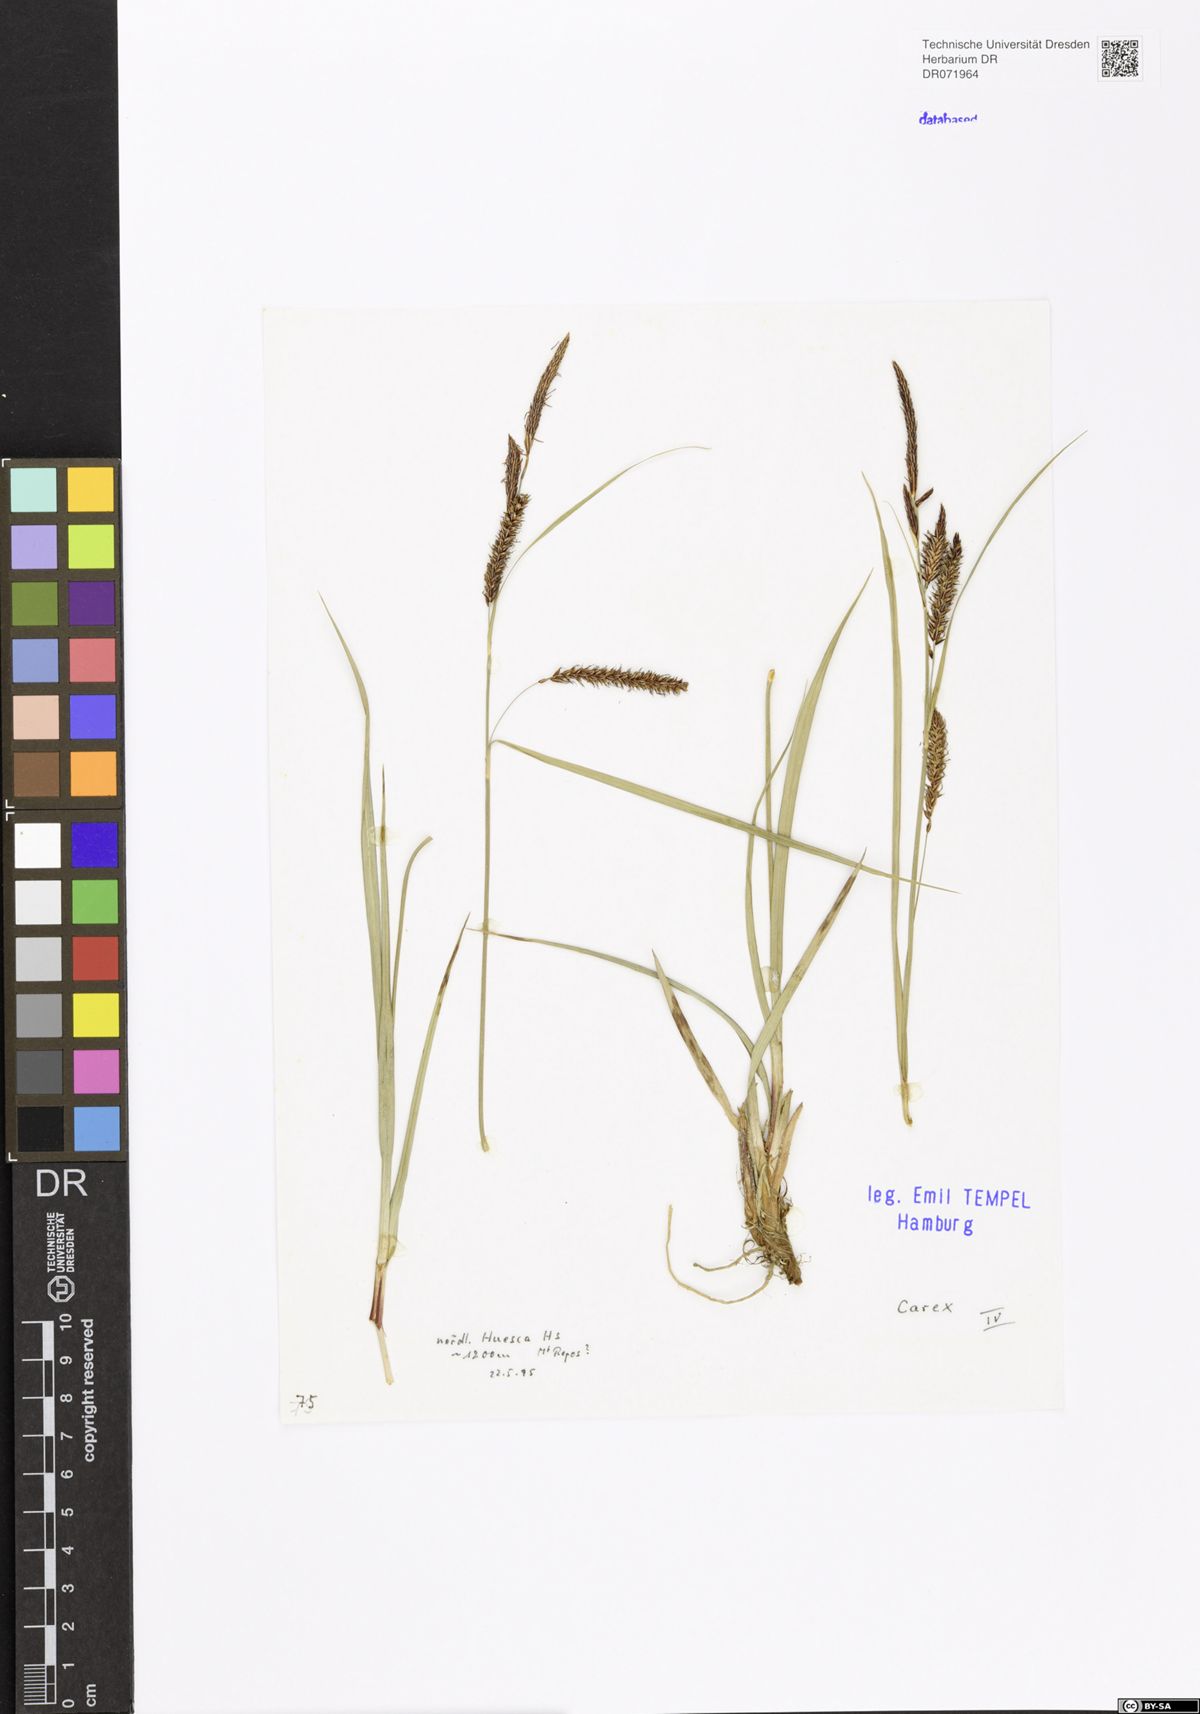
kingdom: Plantae
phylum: Tracheophyta
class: Liliopsida
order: Poales
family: Cyperaceae
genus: Carex
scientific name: Carex
